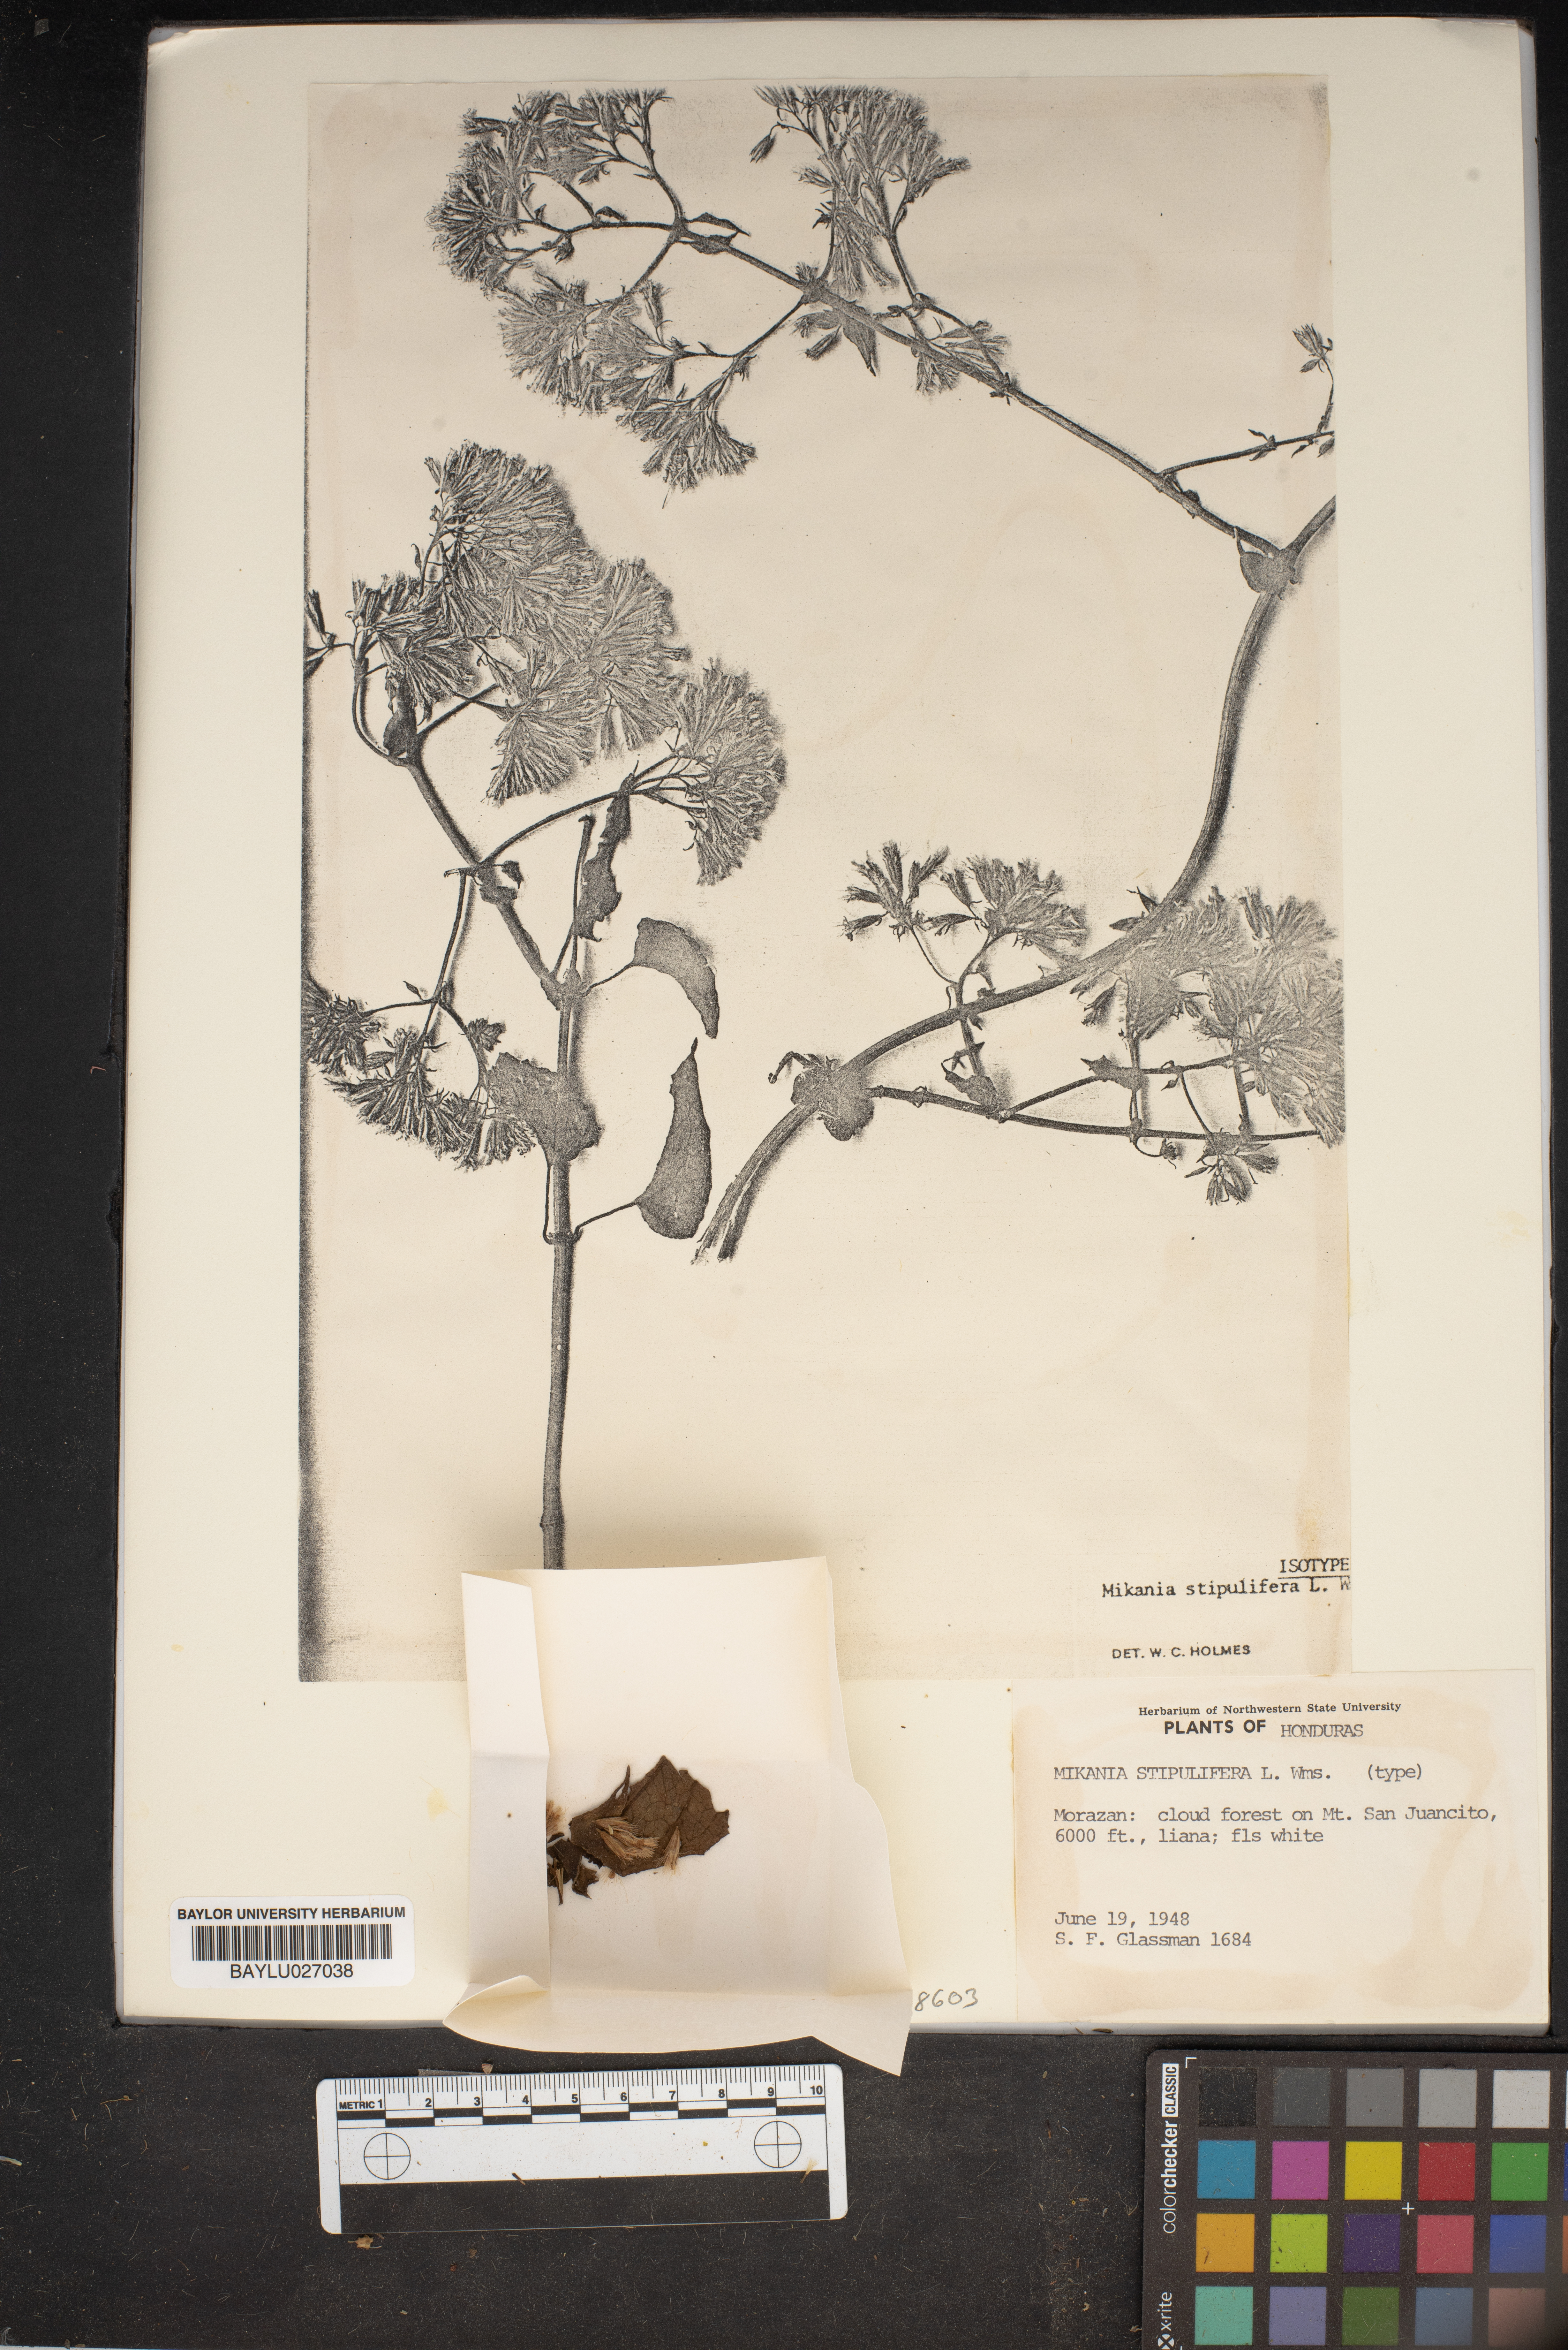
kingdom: Plantae
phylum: Tracheophyta
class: Magnoliopsida
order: Asterales
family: Asteraceae
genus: Mikania
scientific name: Mikania stipulifera
